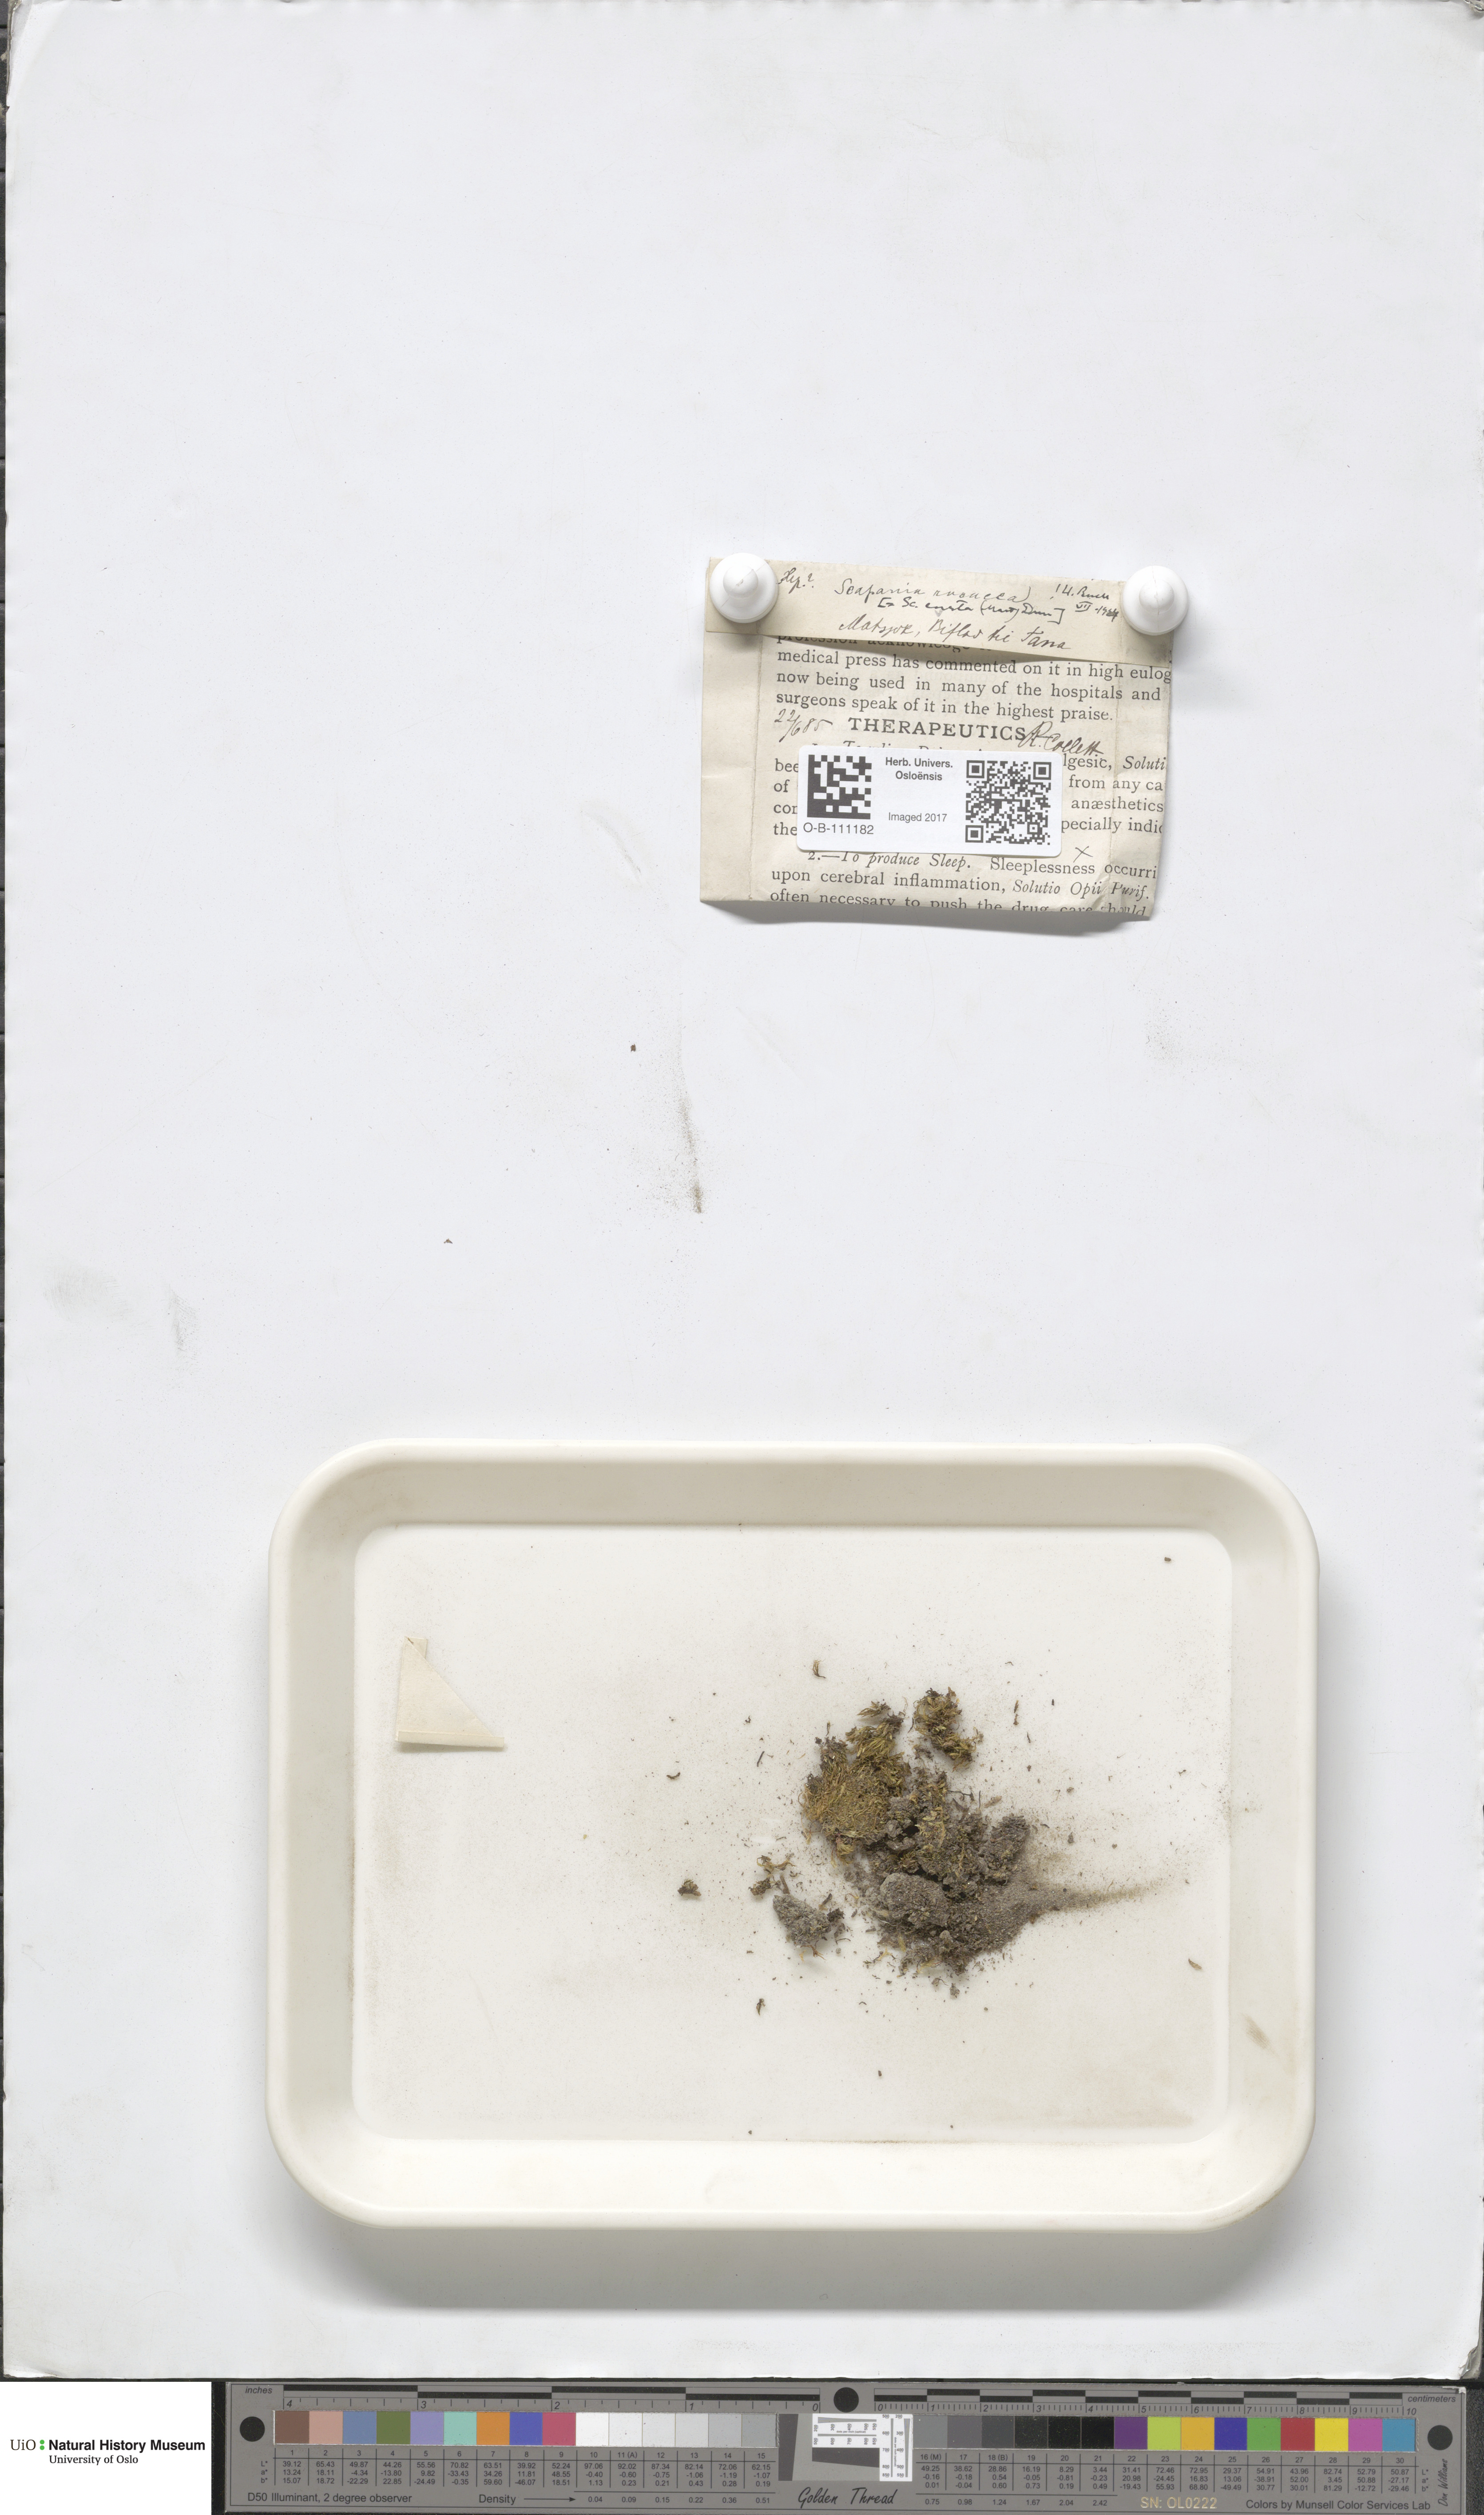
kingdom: Plantae
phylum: Marchantiophyta
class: Jungermanniopsida
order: Jungermanniales
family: Scapaniaceae
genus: Scapania
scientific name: Scapania curta
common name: Least earwort
